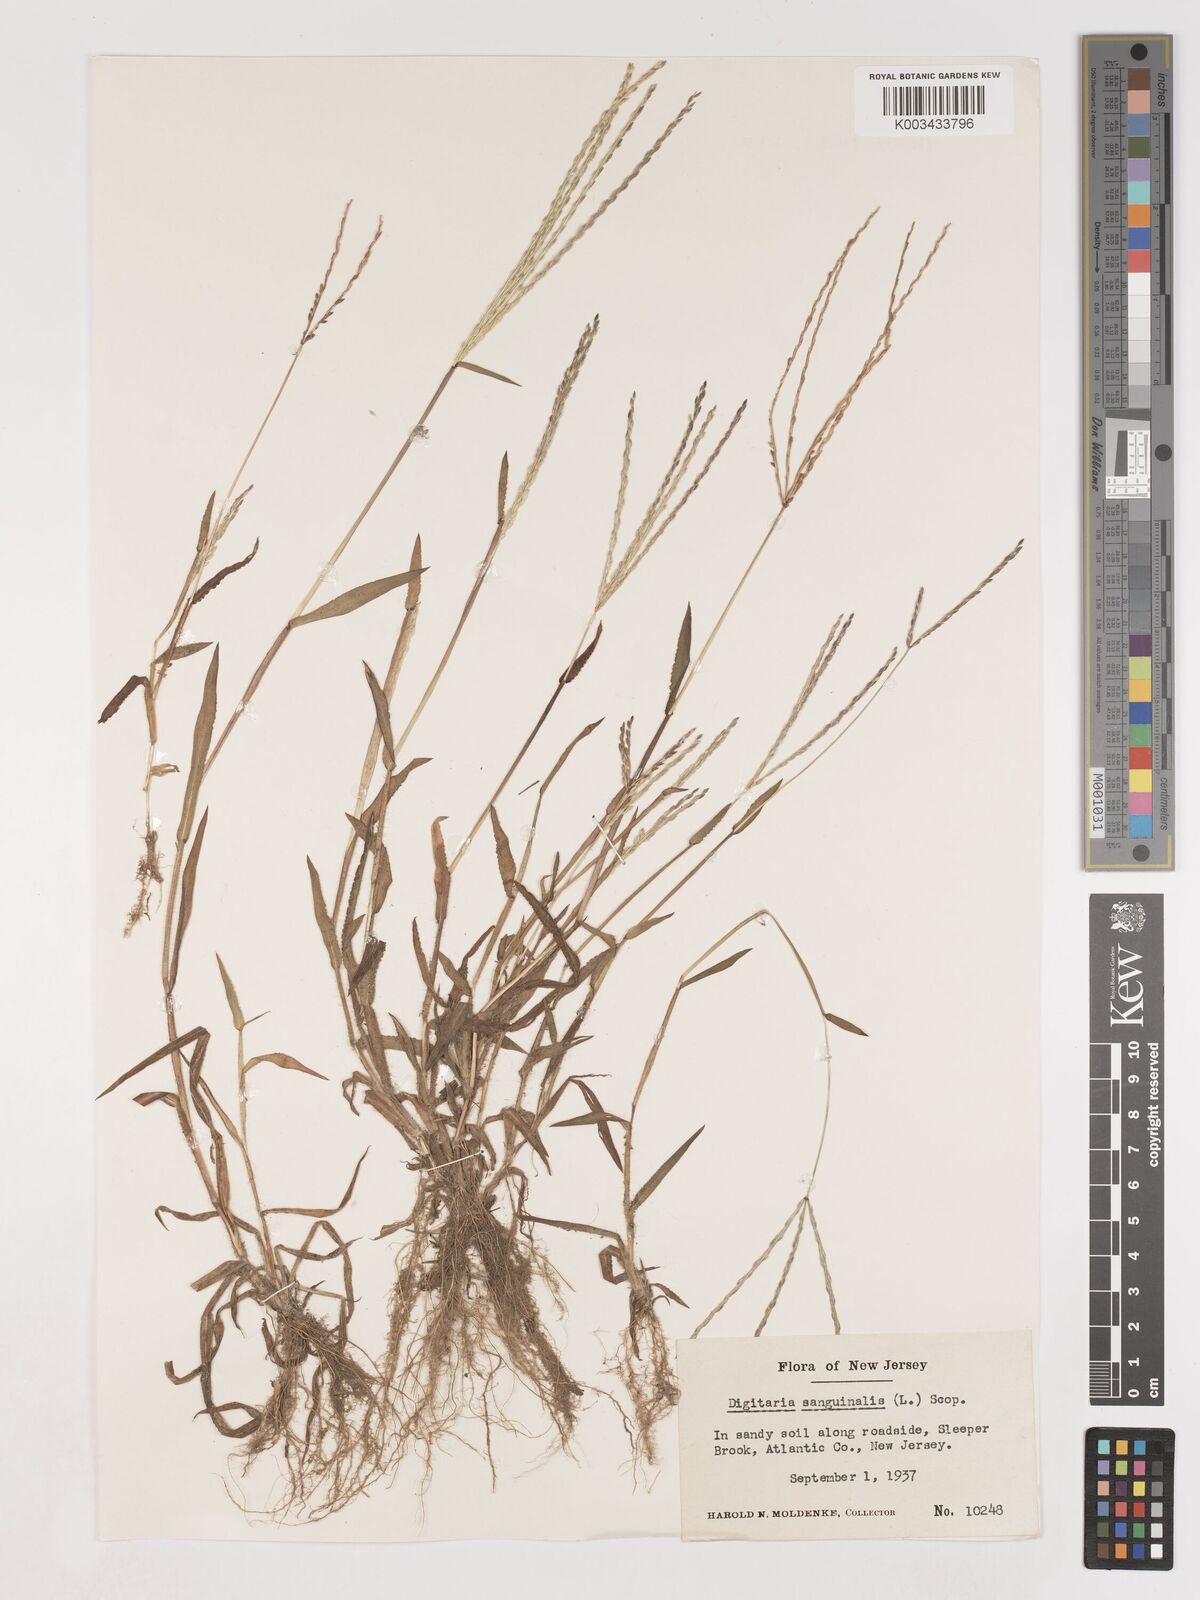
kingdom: Plantae
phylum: Tracheophyta
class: Liliopsida
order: Poales
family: Poaceae
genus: Digitaria
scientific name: Digitaria sanguinalis
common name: Hairy crabgrass
